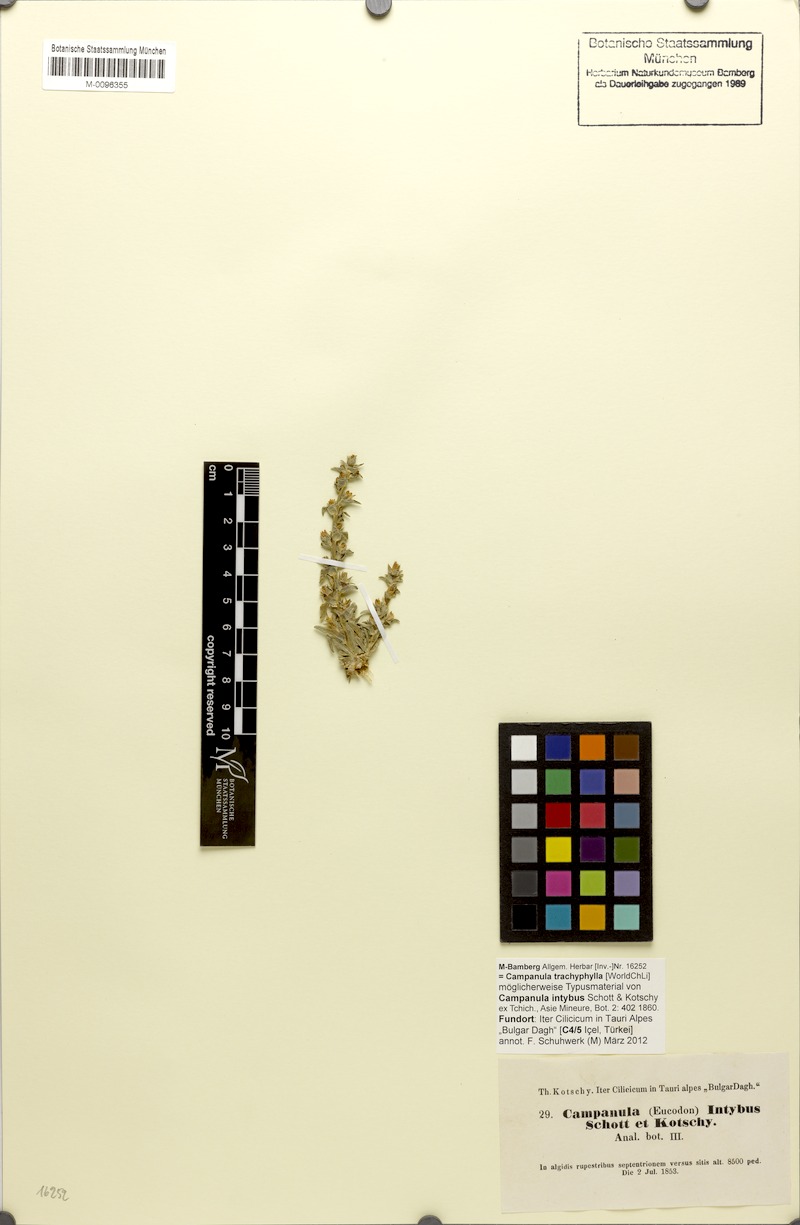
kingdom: Plantae
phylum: Tracheophyta
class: Magnoliopsida
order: Asterales
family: Campanulaceae
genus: Campanula
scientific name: Campanula trachyphylla
